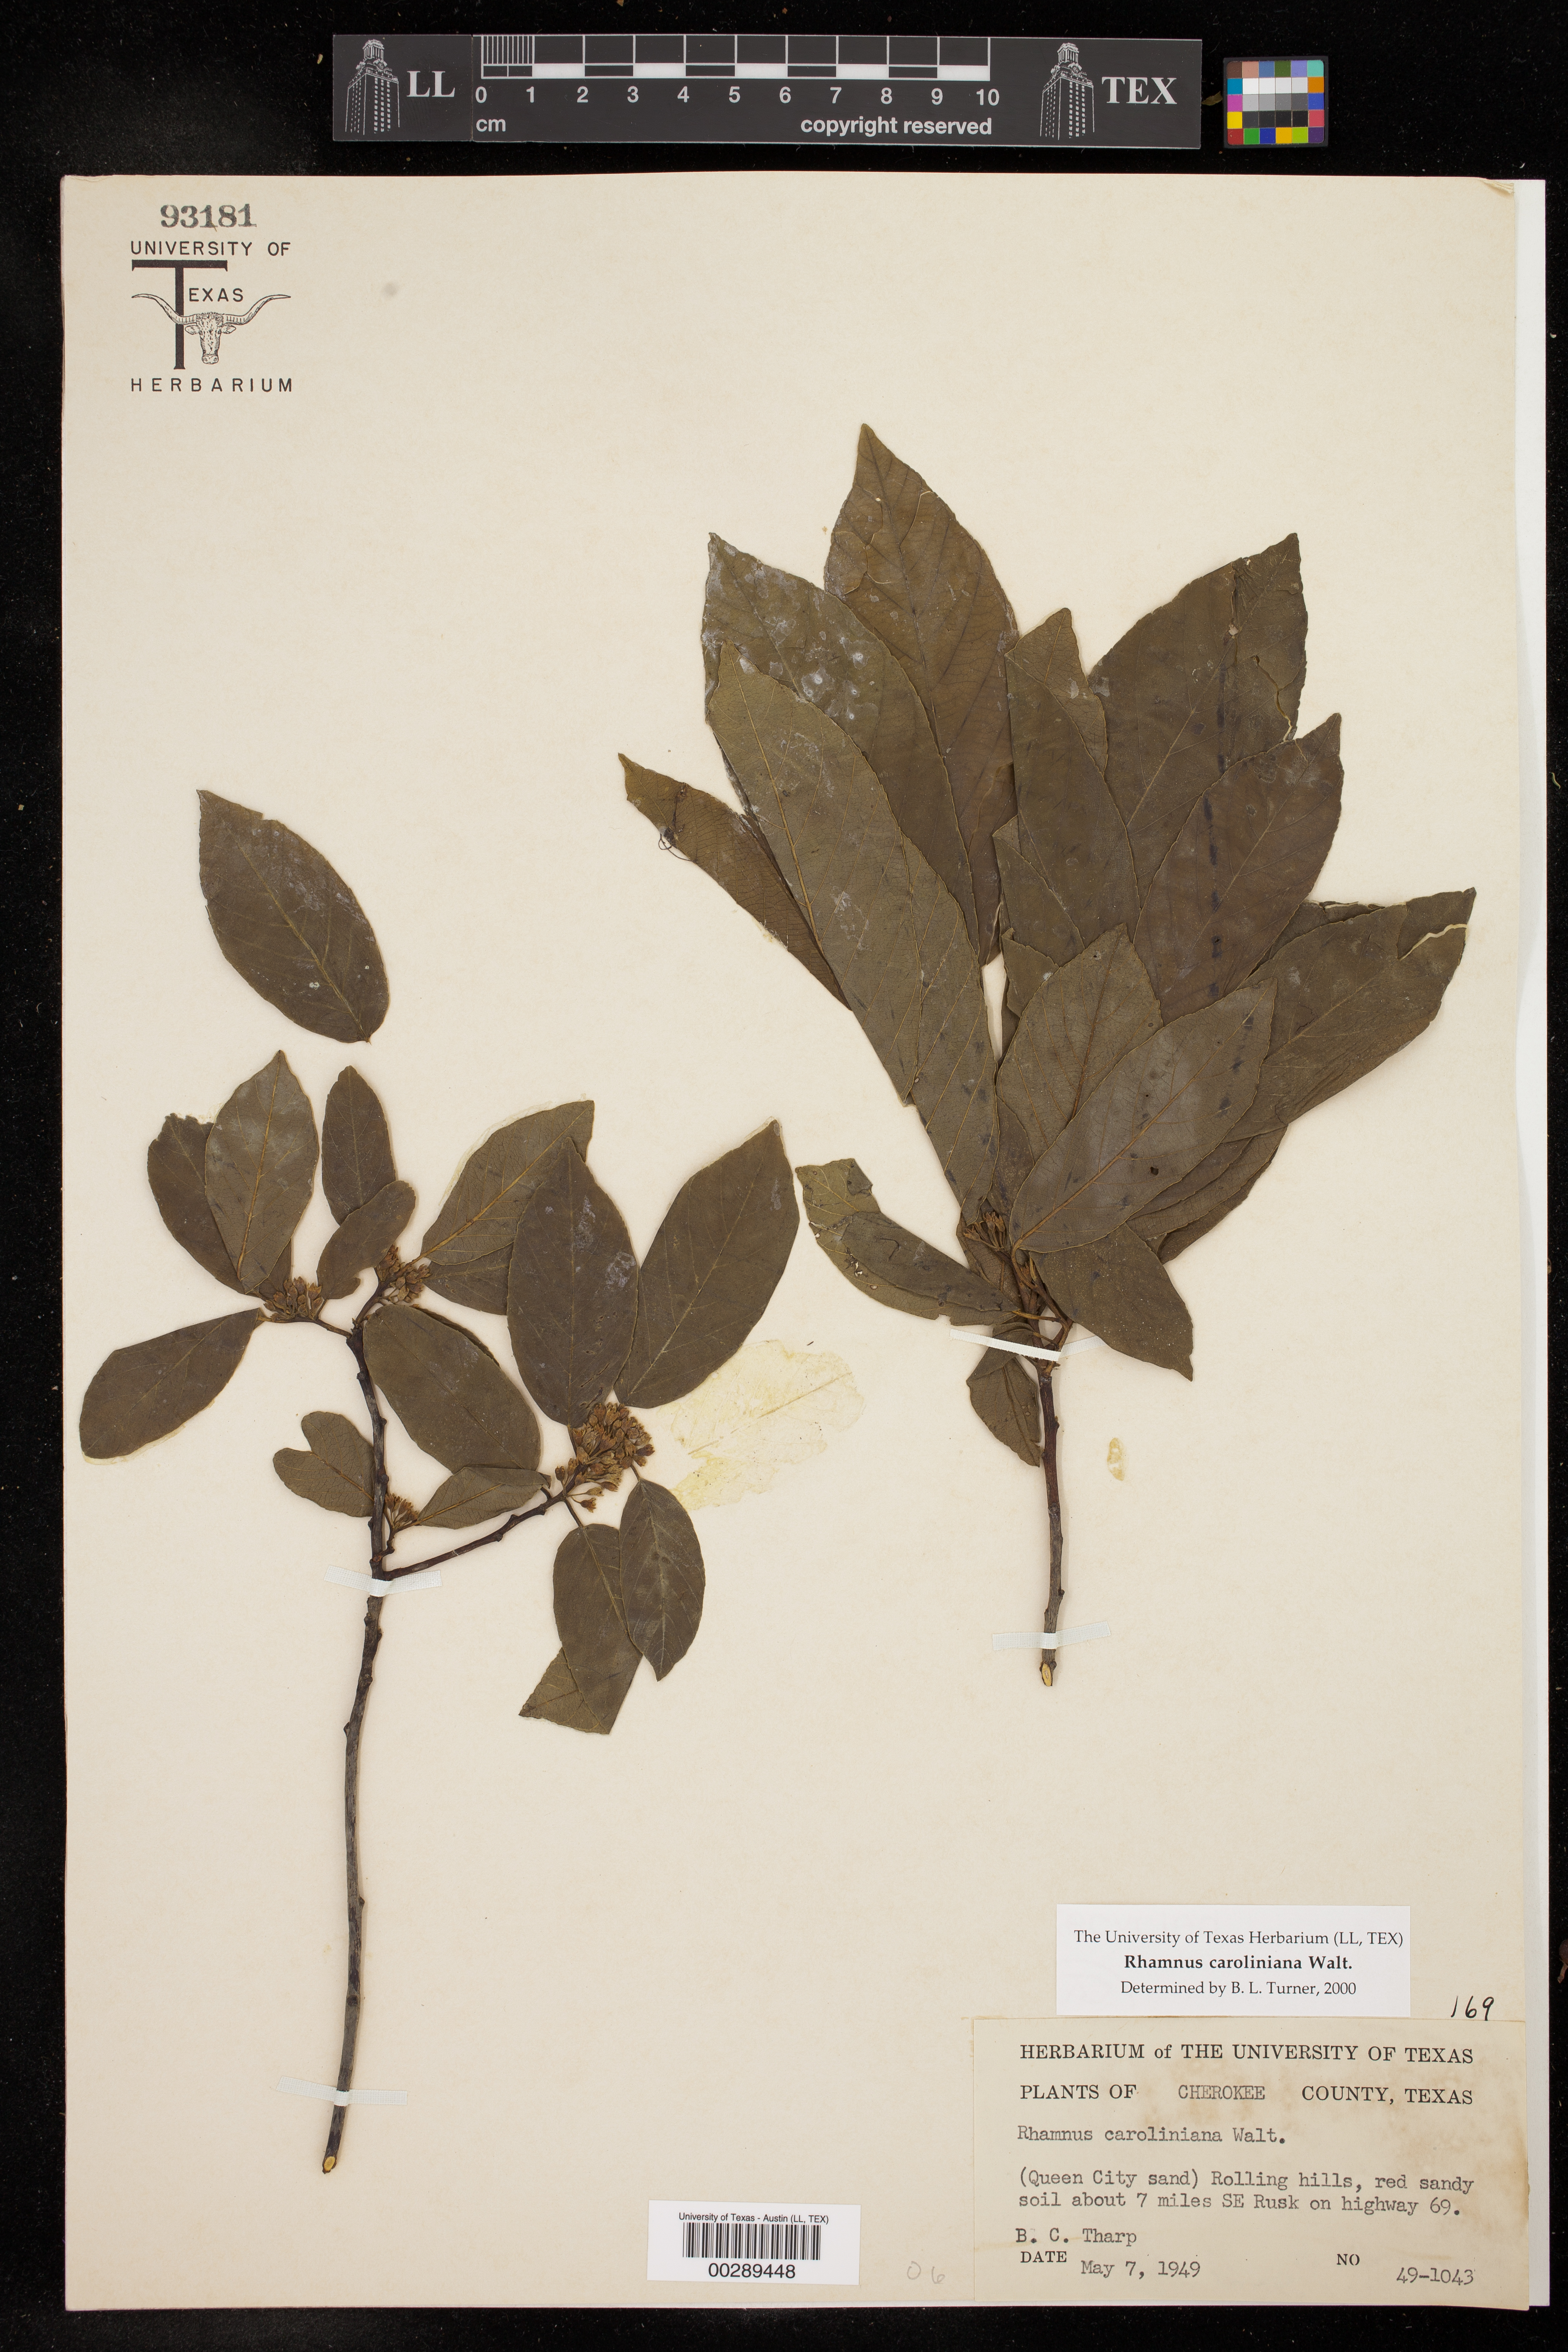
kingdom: Plantae
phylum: Tracheophyta
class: Magnoliopsida
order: Rosales
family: Rhamnaceae
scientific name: Rhamnaceae
